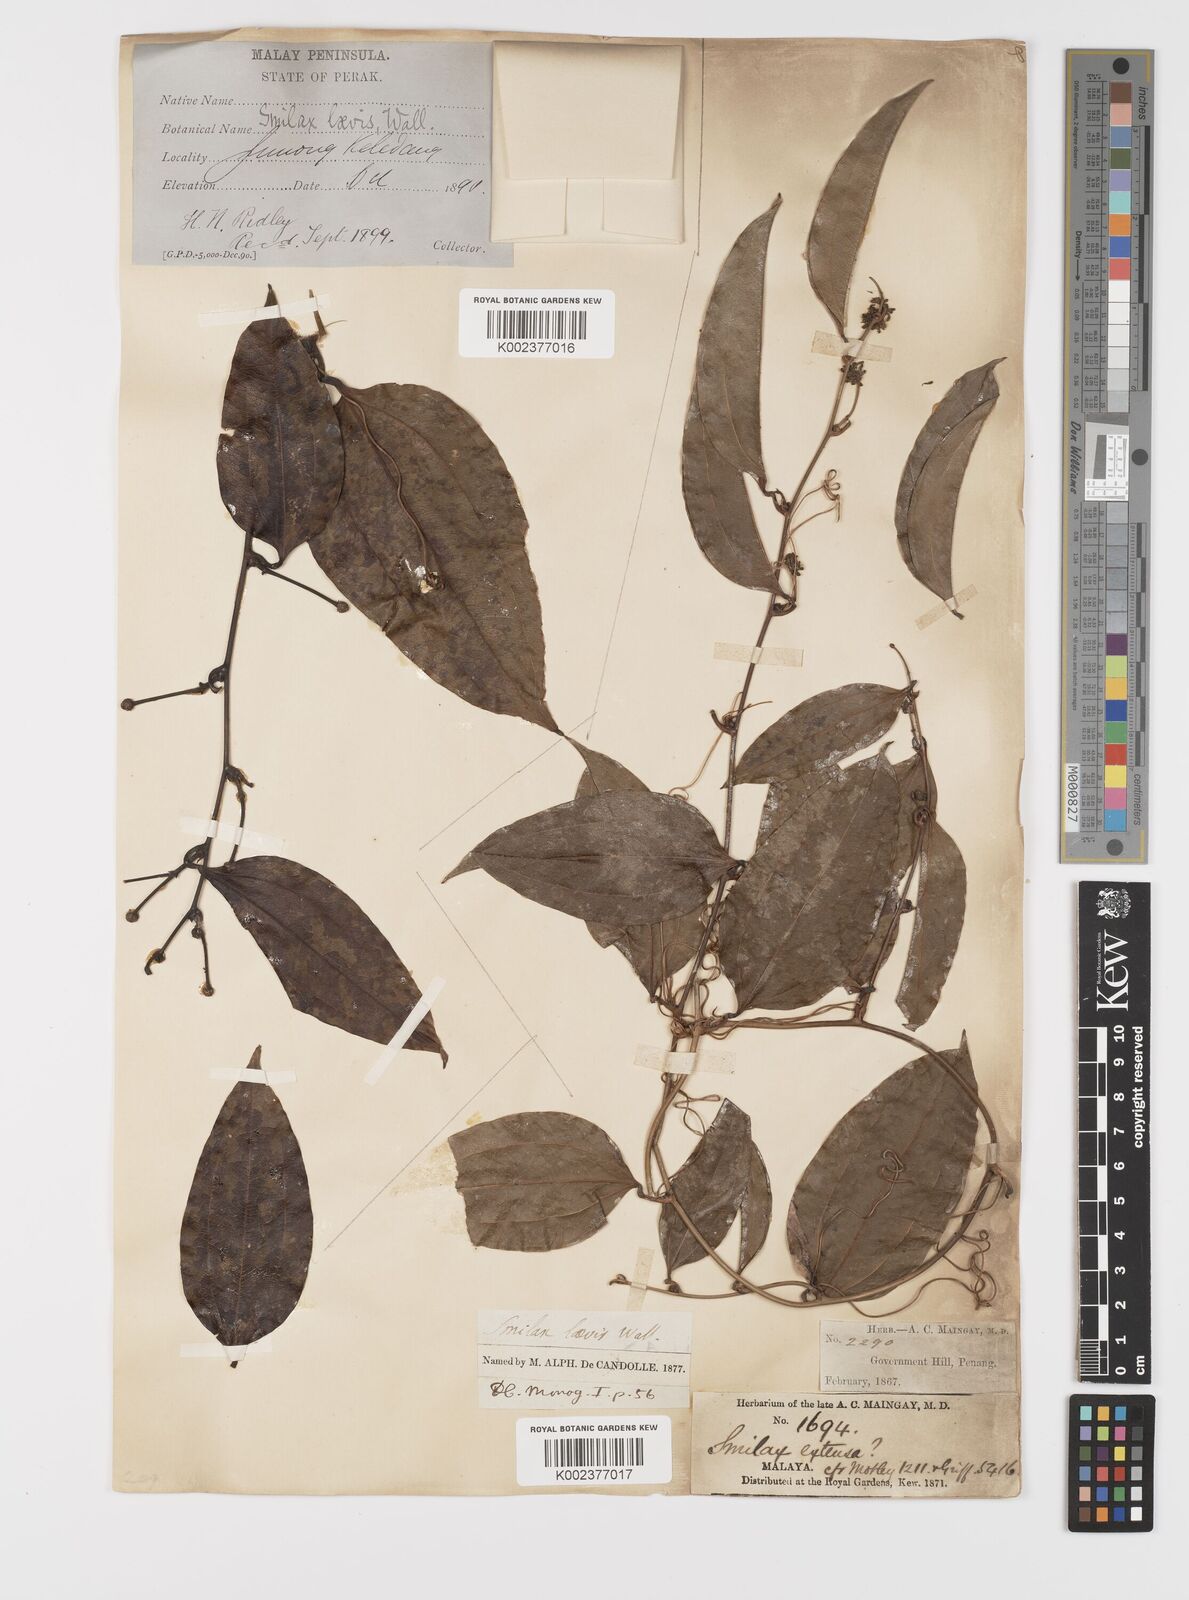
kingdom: Plantae
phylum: Tracheophyta
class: Liliopsida
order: Liliales
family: Smilacaceae
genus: Smilax
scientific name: Smilax laevis
